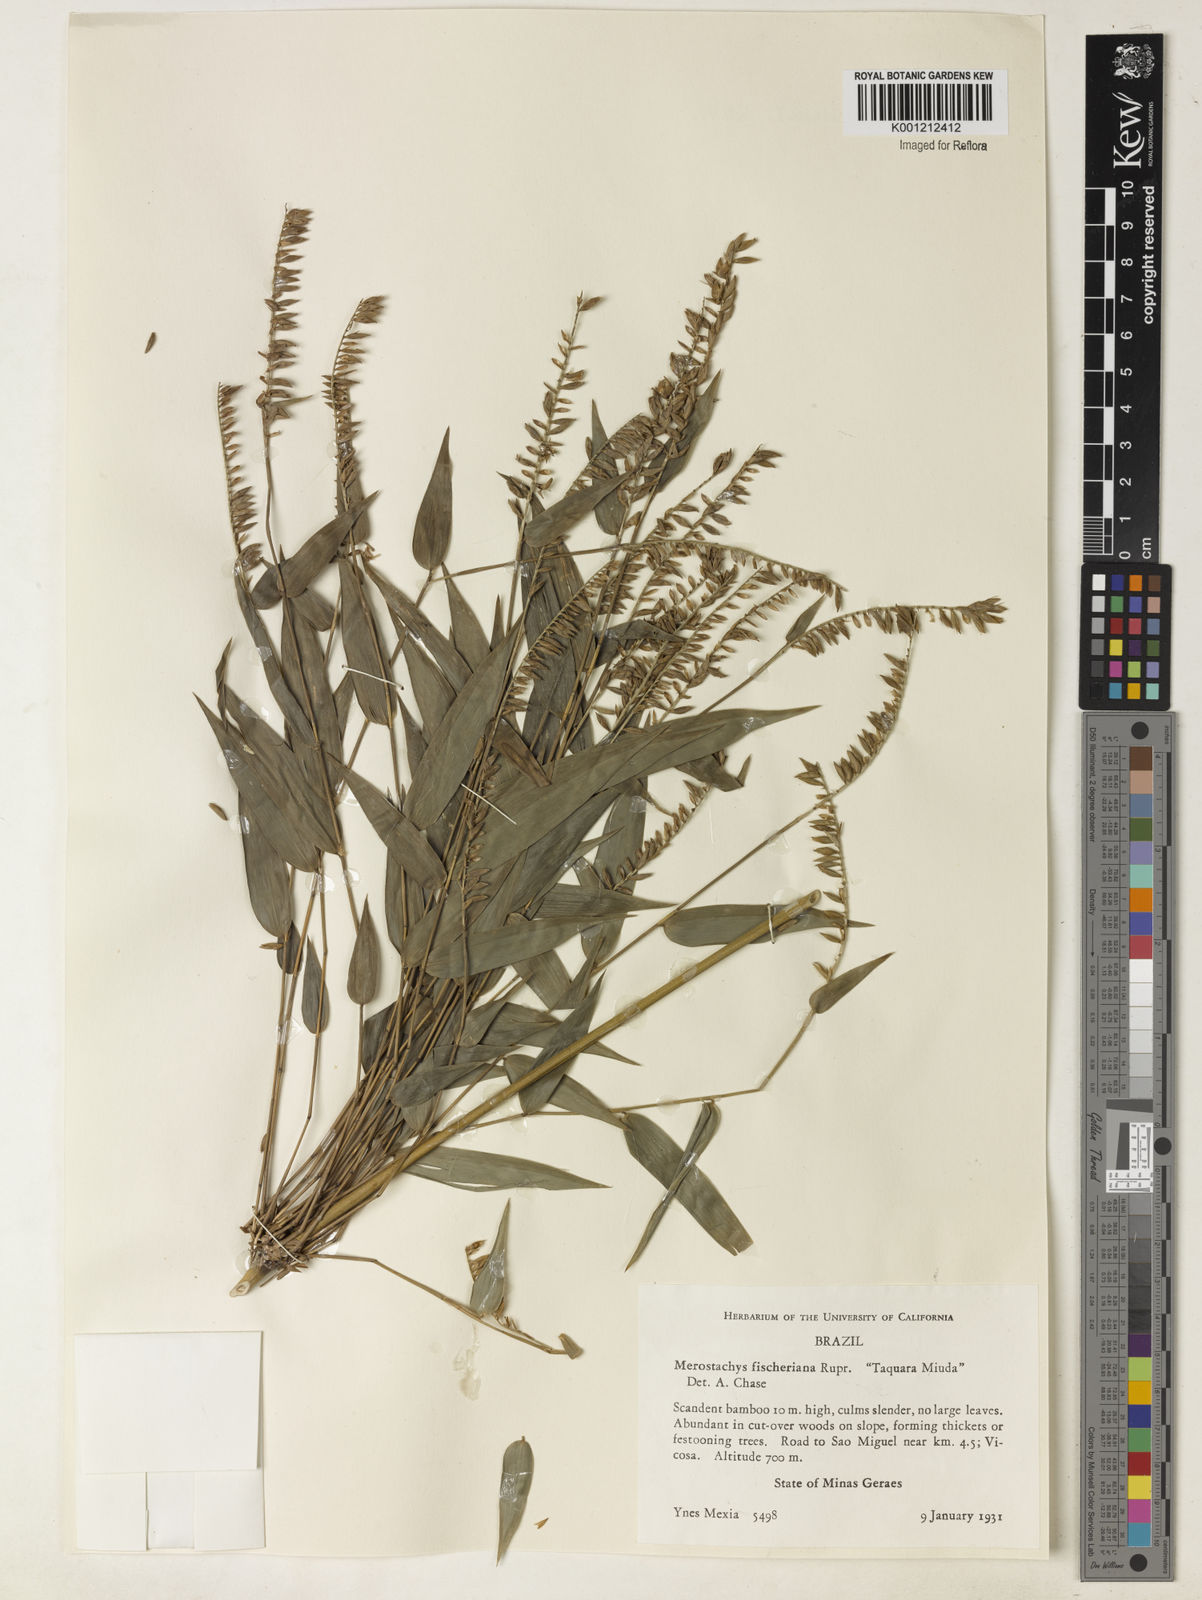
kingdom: Plantae
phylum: Tracheophyta
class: Liliopsida
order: Poales
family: Poaceae
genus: Merostachys
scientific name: Merostachys
